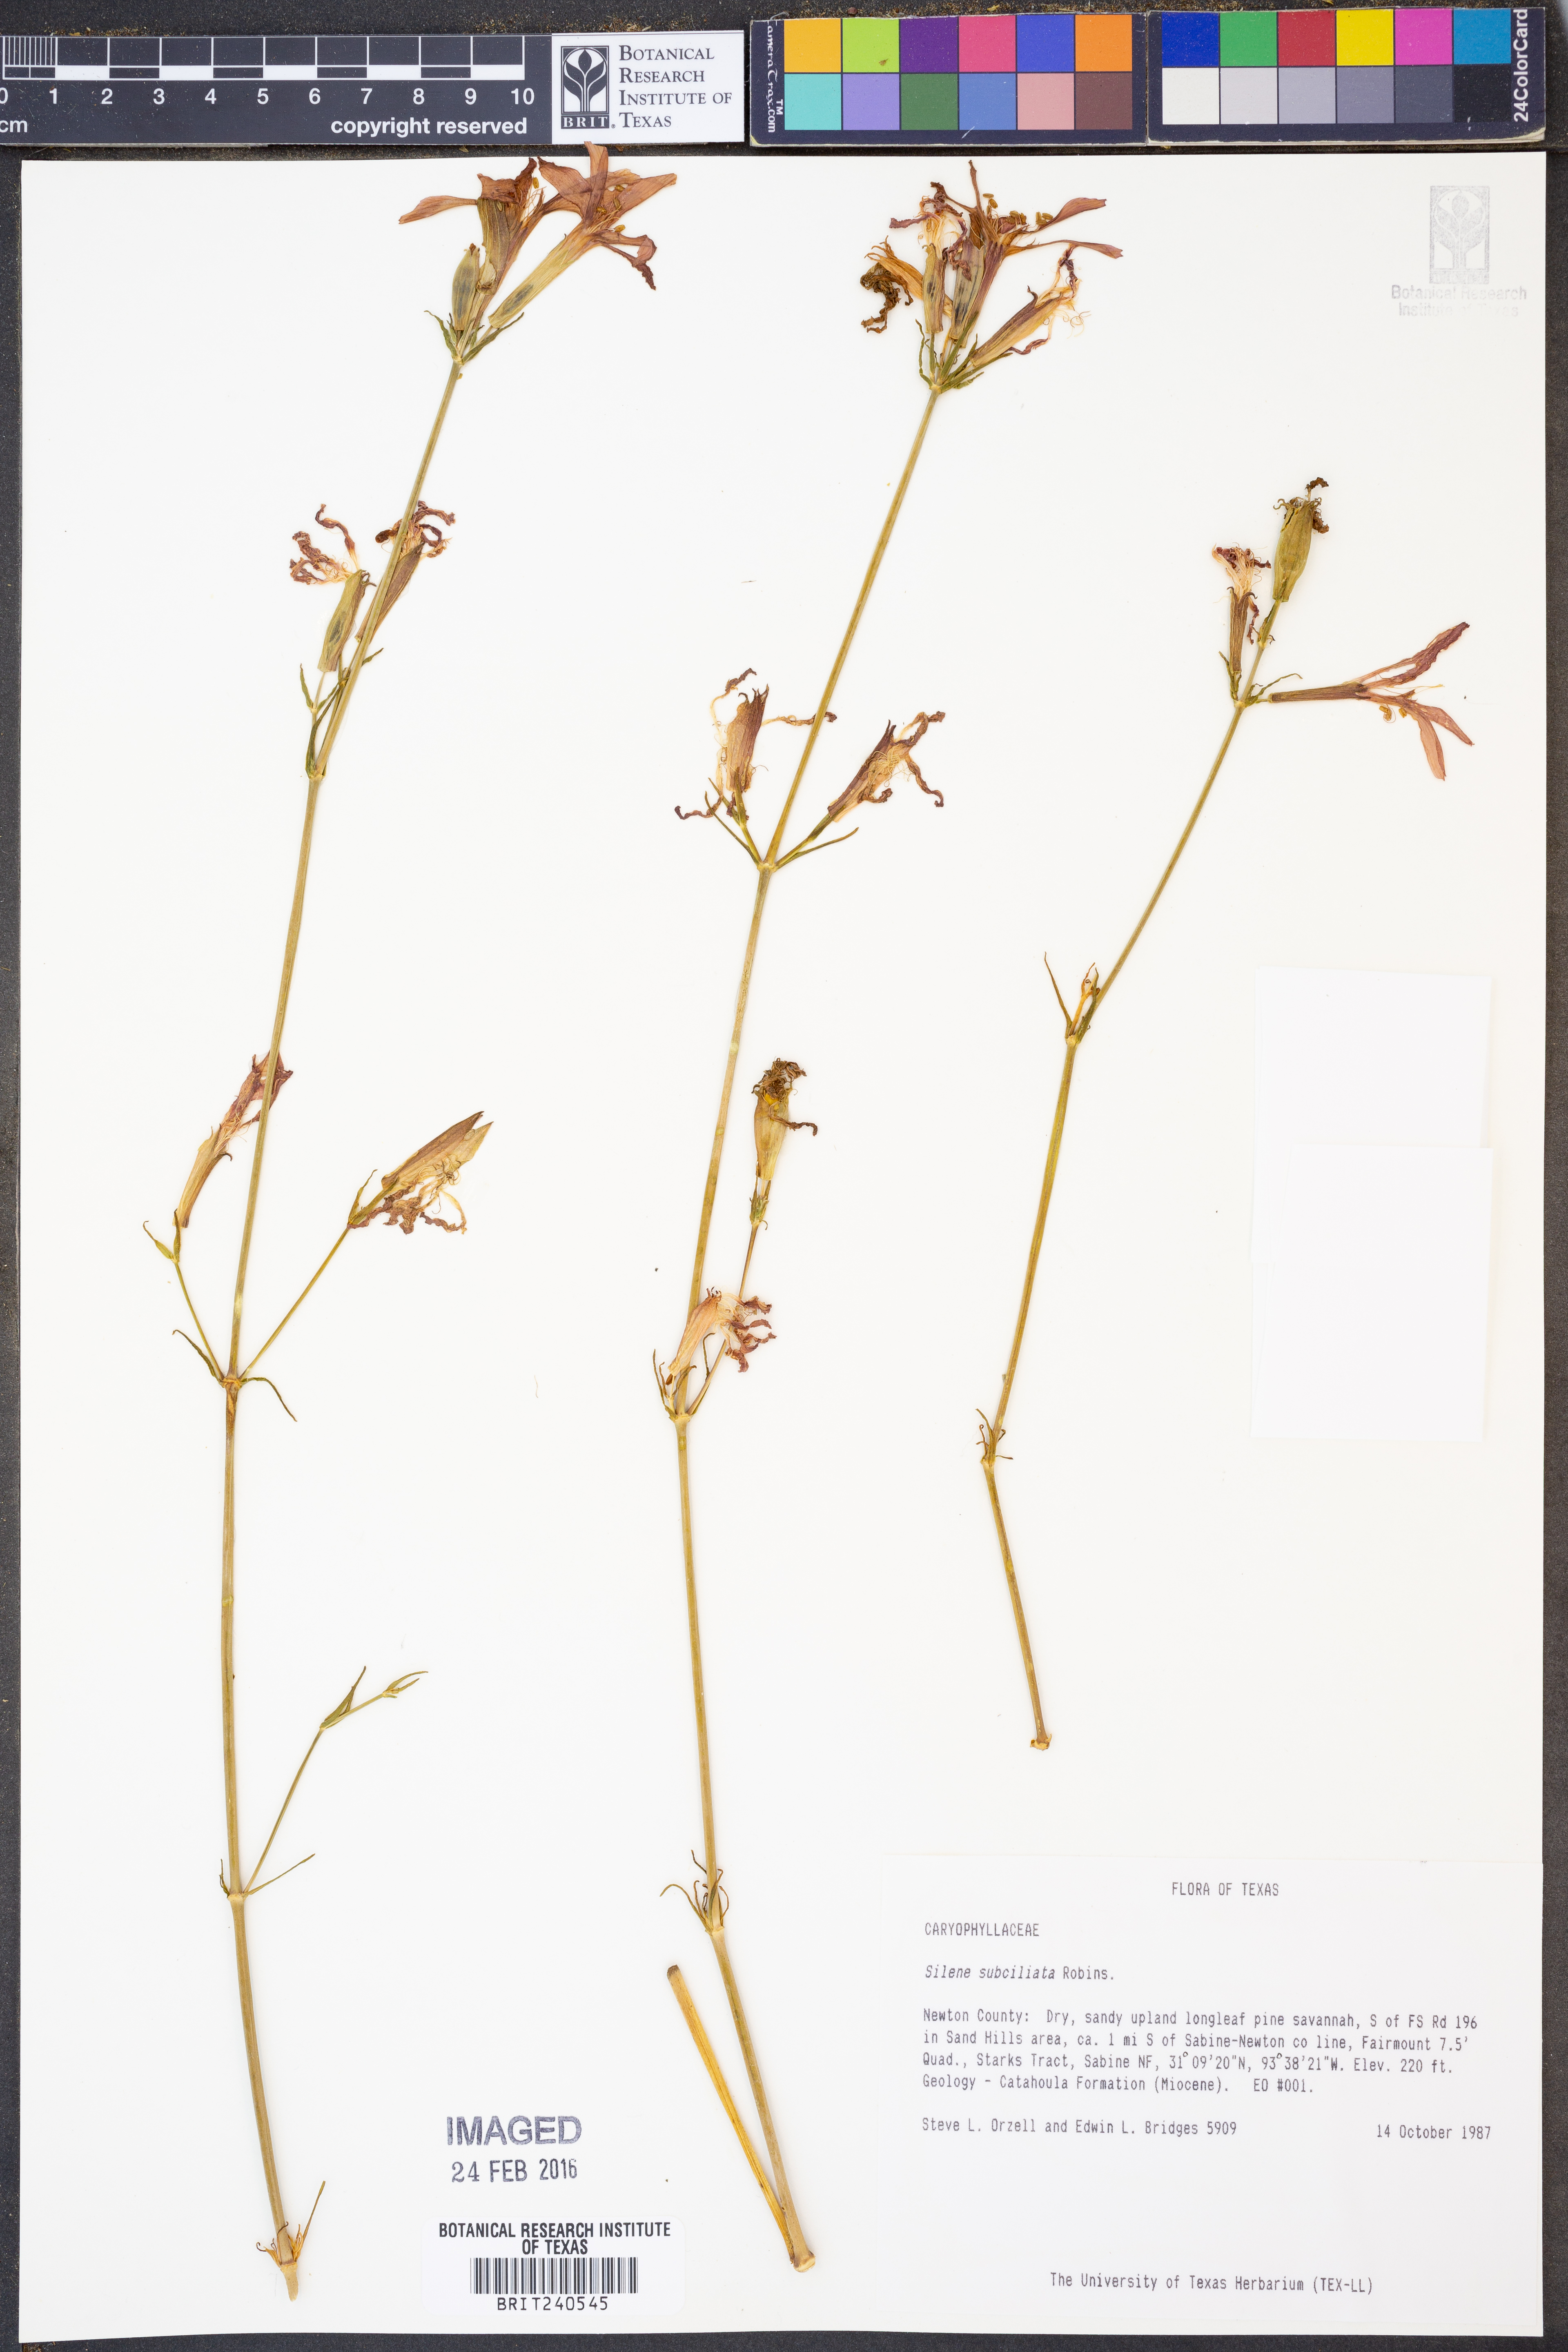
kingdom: Plantae
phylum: Tracheophyta
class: Magnoliopsida
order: Caryophyllales
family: Caryophyllaceae
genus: Silene
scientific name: Silene subciliata
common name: Prairie fire-pink
